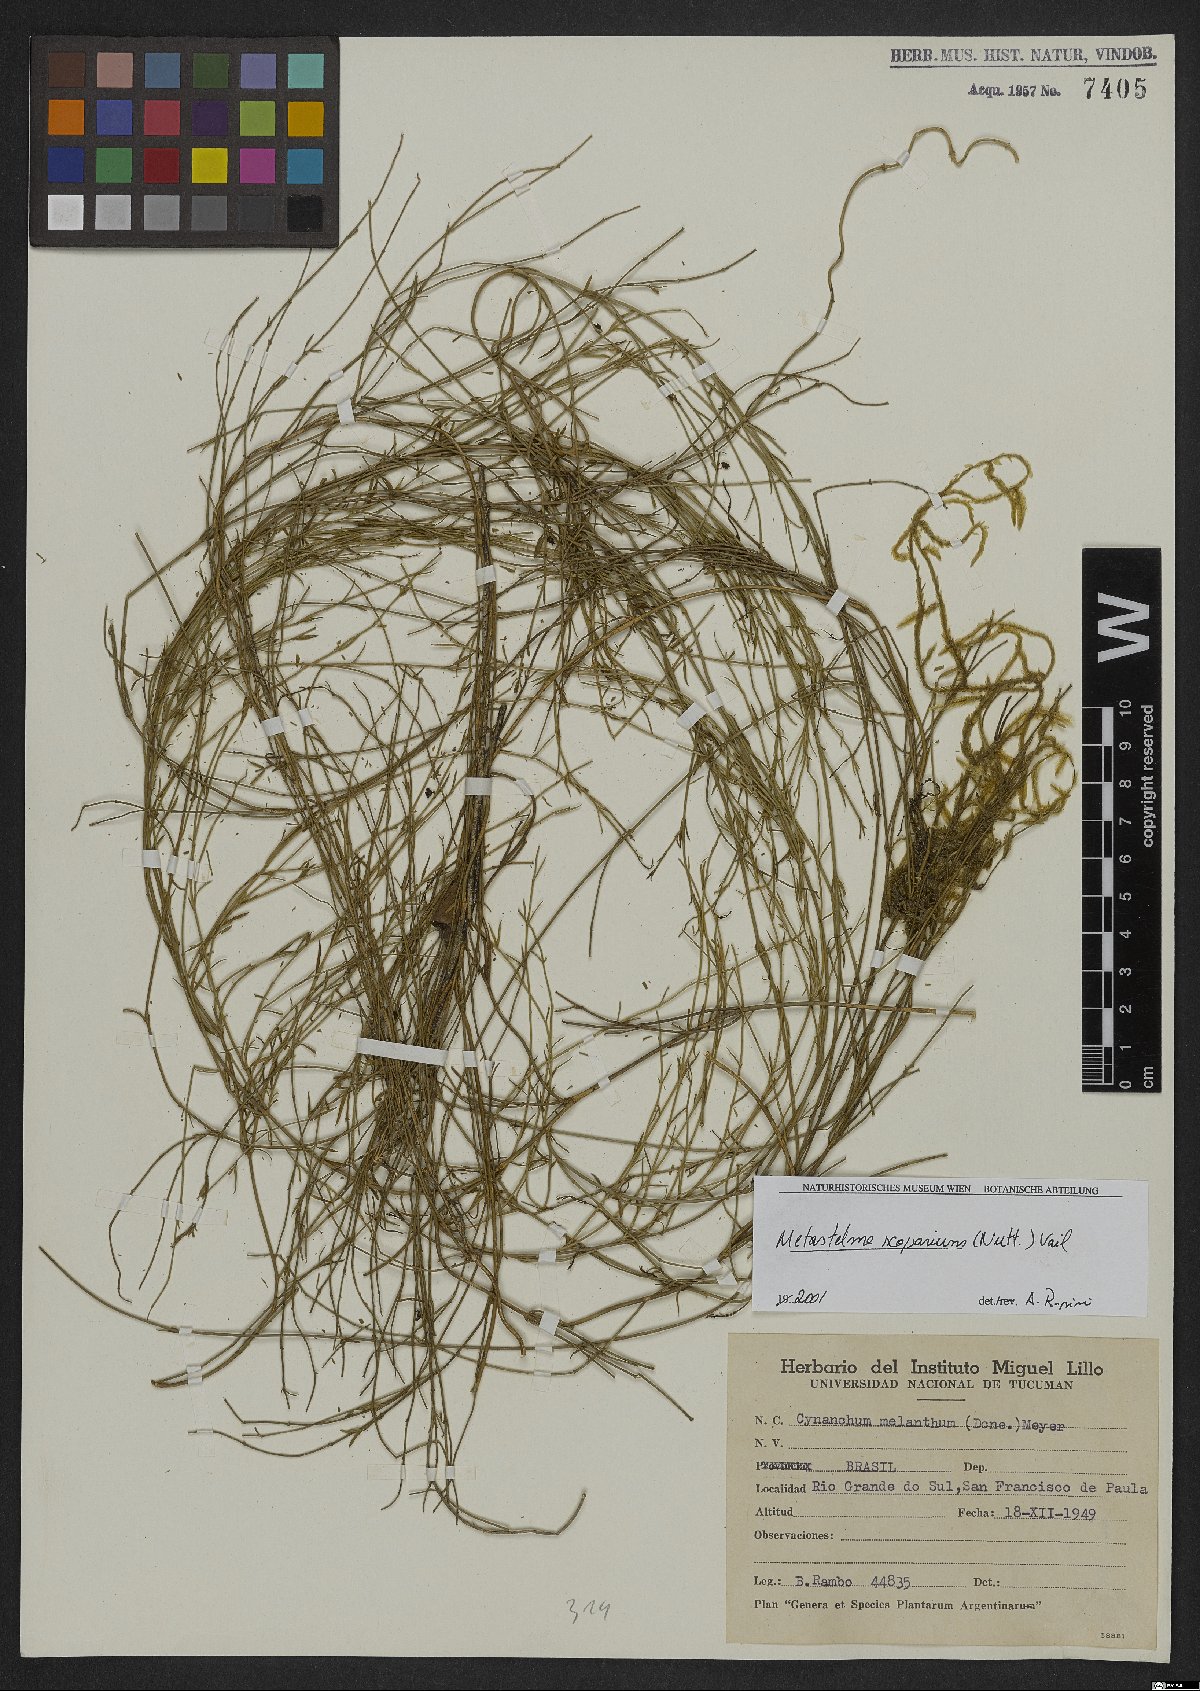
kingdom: Plantae
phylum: Tracheophyta
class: Magnoliopsida
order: Gentianales
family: Apocynaceae
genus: Orthosia
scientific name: Orthosia scoparia
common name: Leafless swallow-wort
